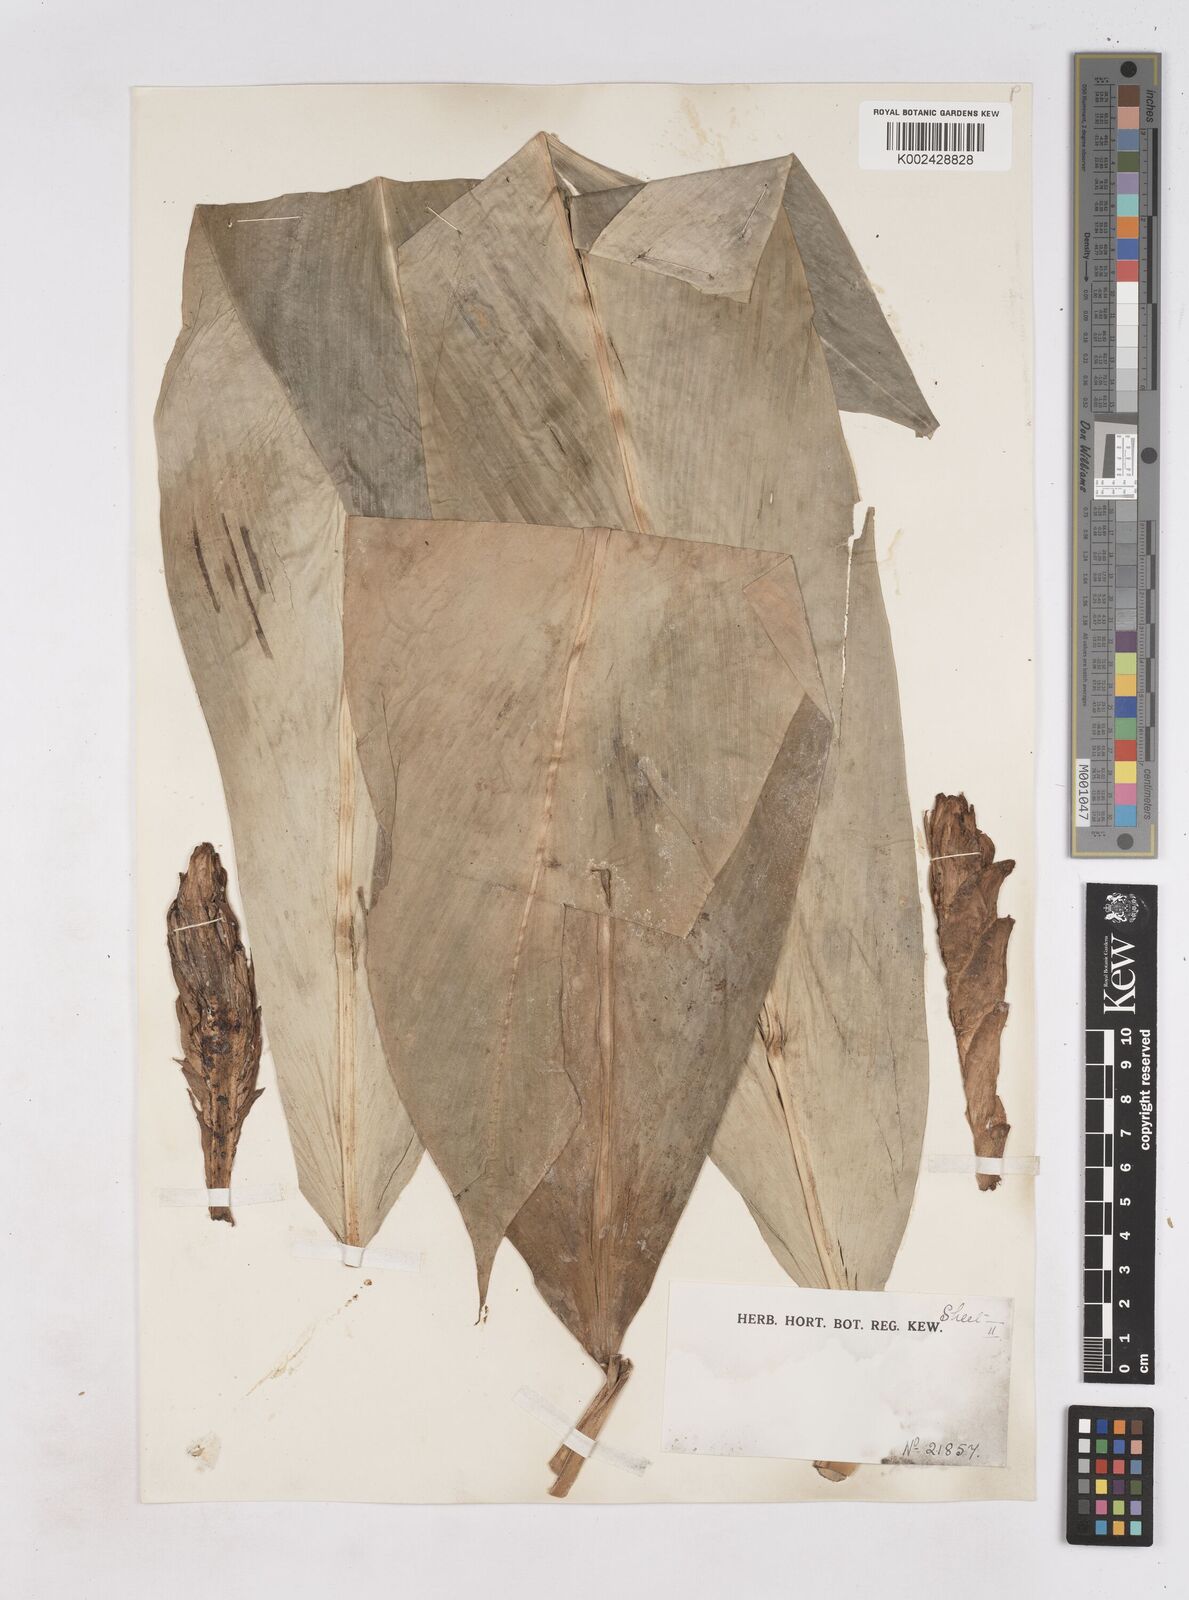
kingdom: Plantae
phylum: Tracheophyta
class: Liliopsida
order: Zingiberales
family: Zingiberaceae
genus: Zingiber
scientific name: Zingiber puberulum
